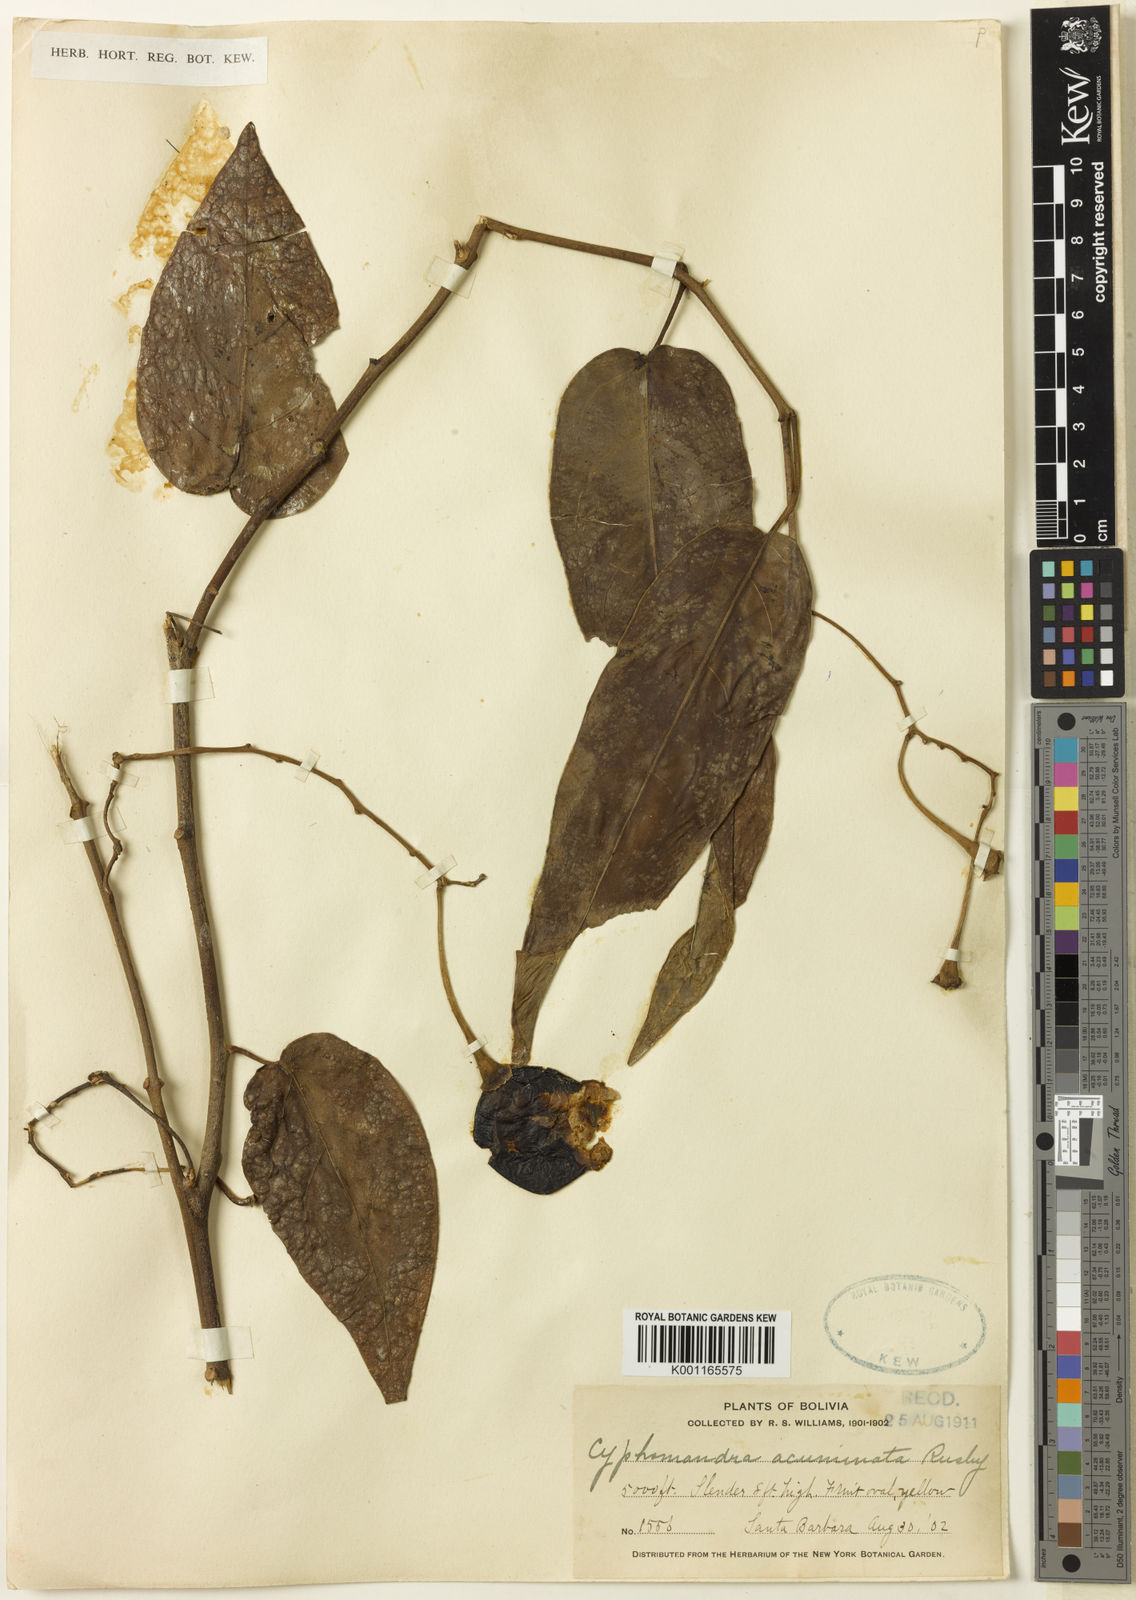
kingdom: Plantae
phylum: Tracheophyta
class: Magnoliopsida
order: Solanales
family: Solanaceae
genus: Solanum
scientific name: Solanum roseum
